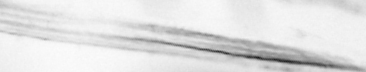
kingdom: Animalia
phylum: Arthropoda
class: Copepoda
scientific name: Copepoda
